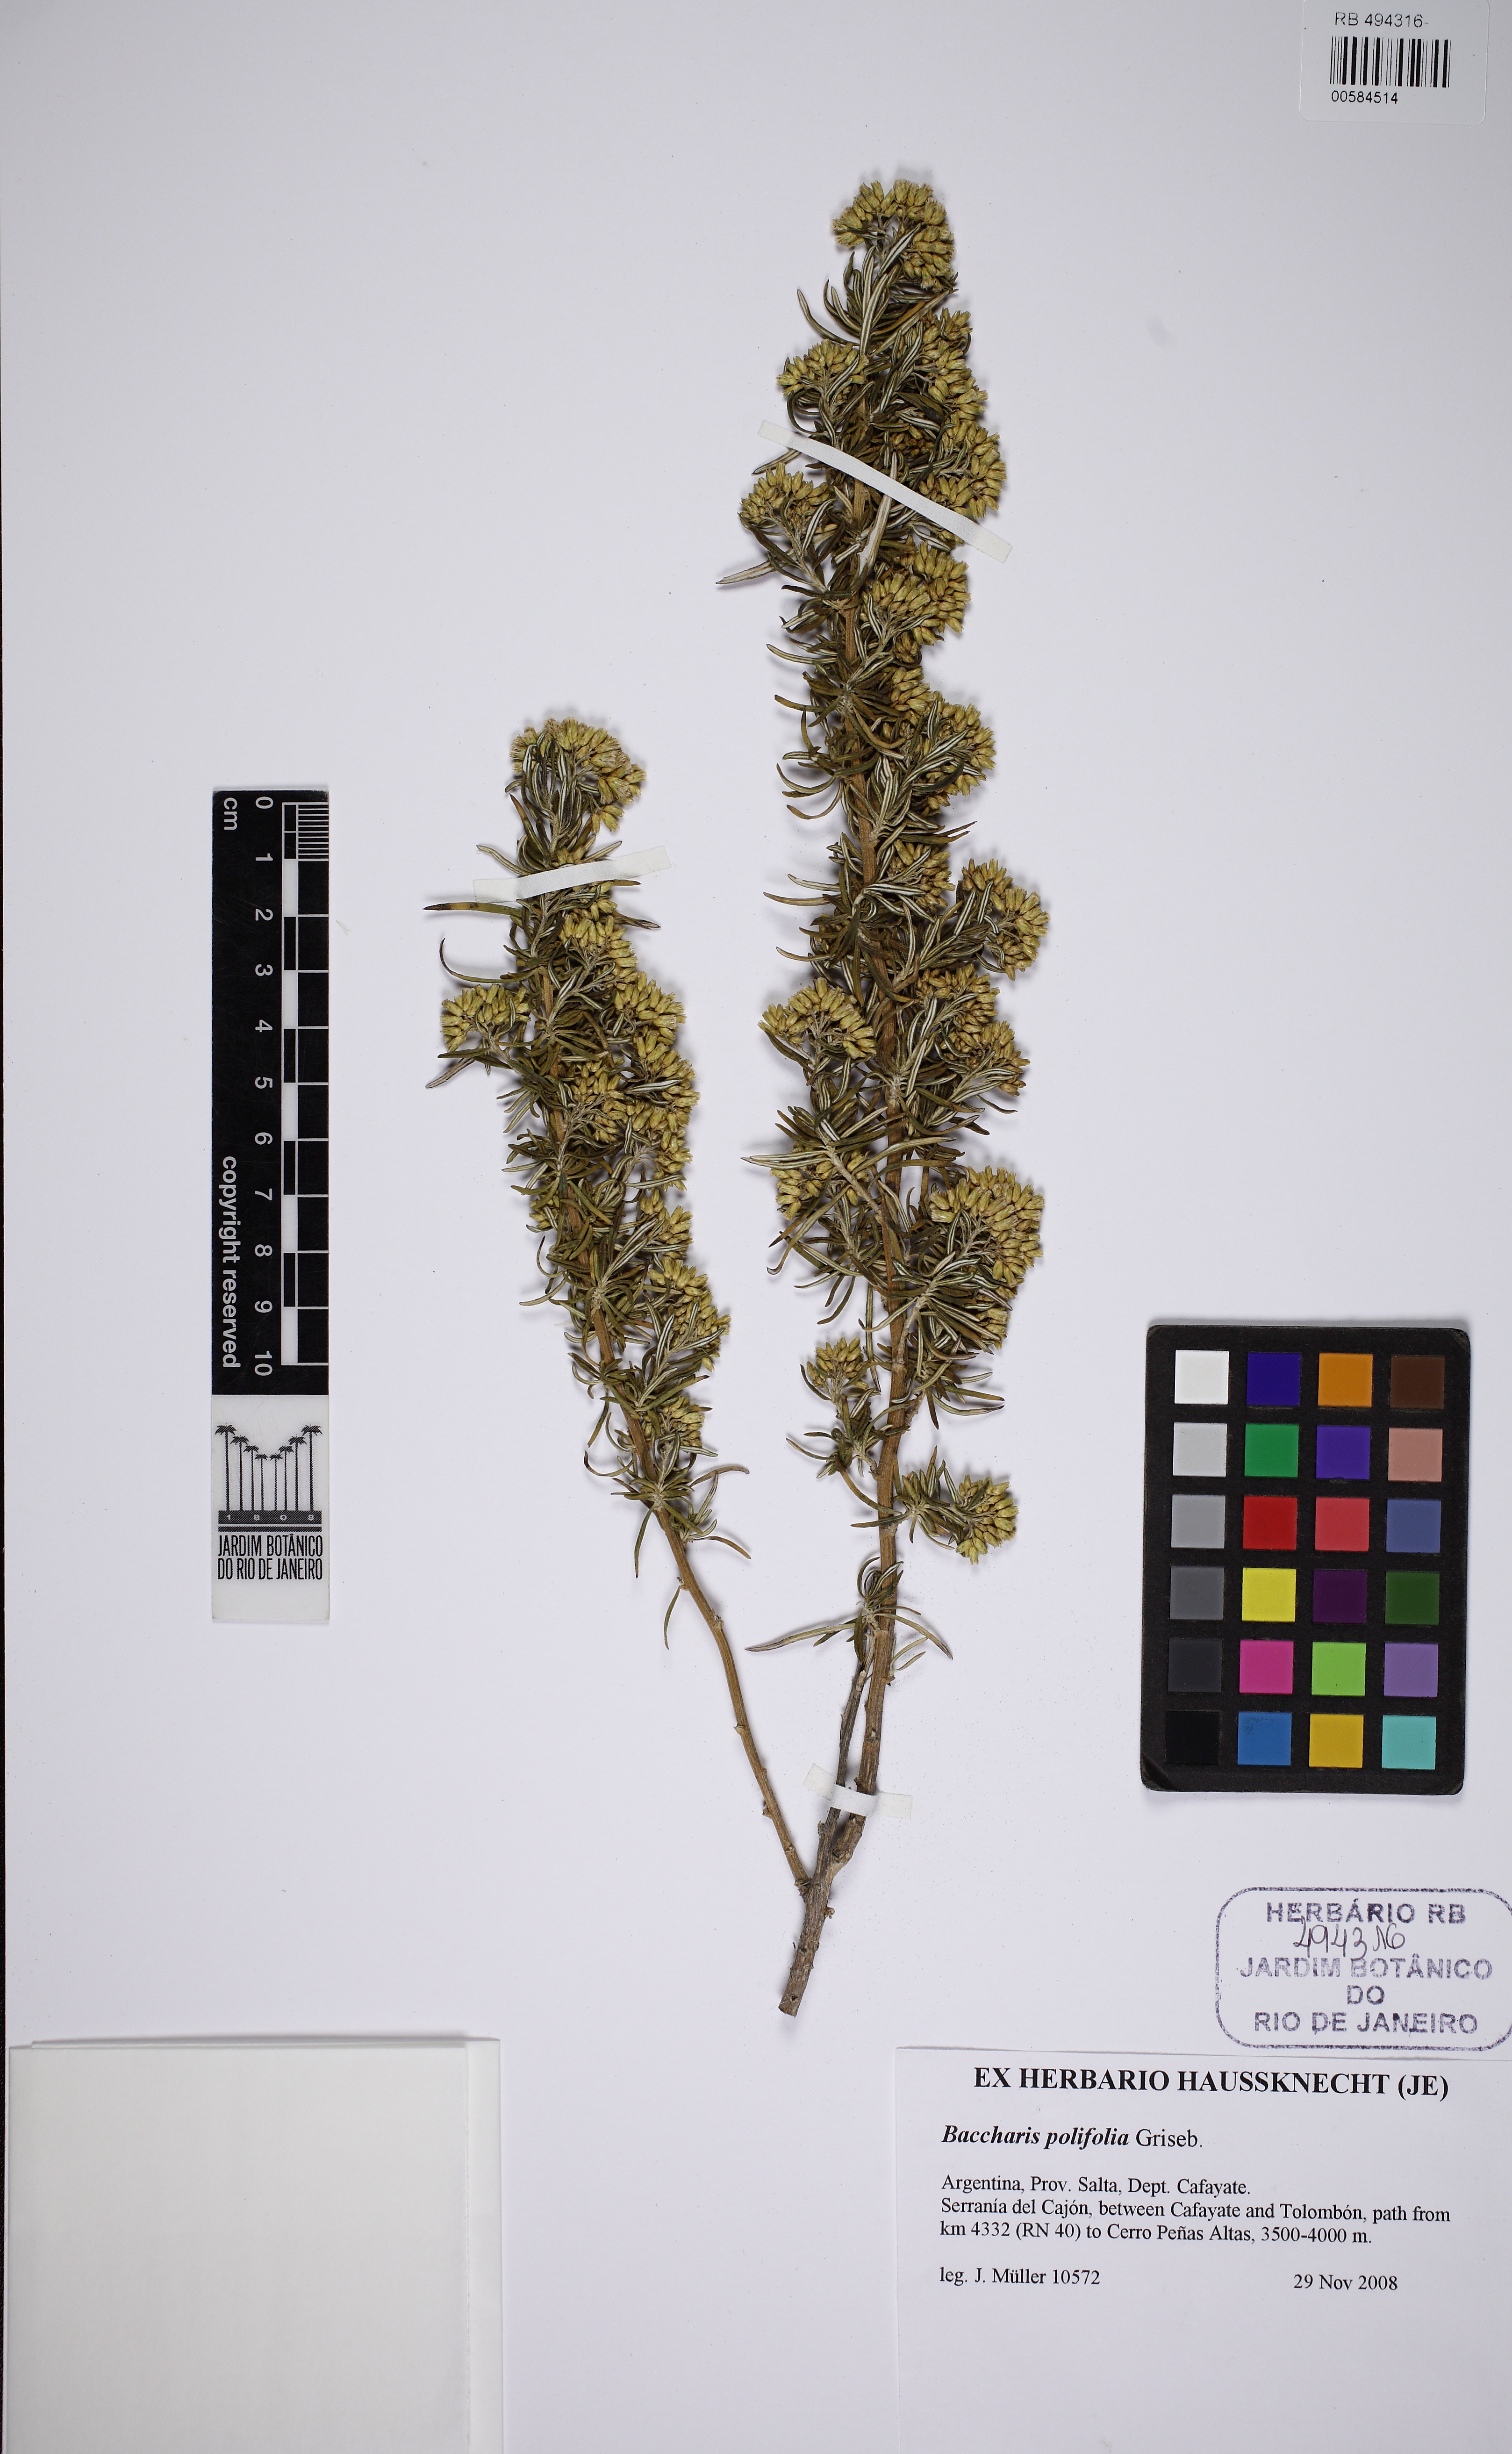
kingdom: Plantae
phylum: Tracheophyta
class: Magnoliopsida
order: Asterales
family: Asteraceae
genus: Baccharis
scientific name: Baccharis polifolia
